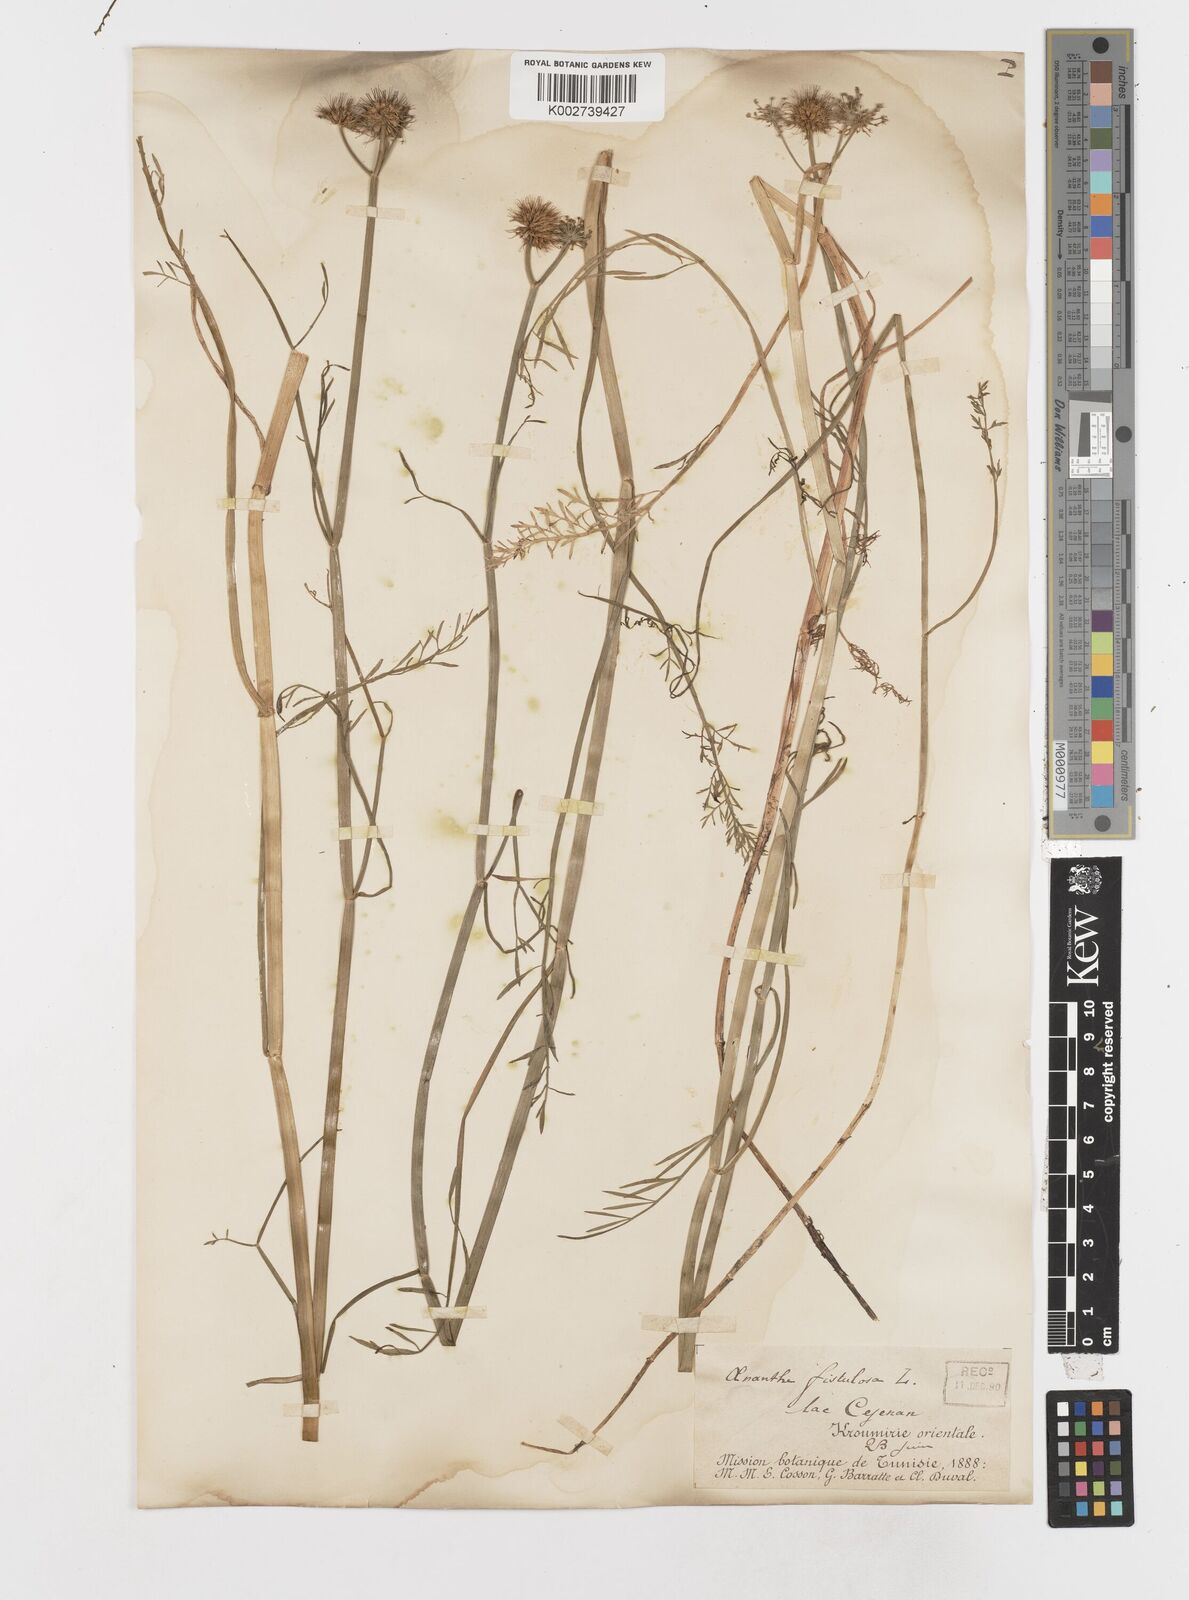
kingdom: Plantae
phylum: Tracheophyta
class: Magnoliopsida
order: Apiales
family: Apiaceae
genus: Oenanthe
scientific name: Oenanthe fistulosa
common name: Tubular water-dropwort
